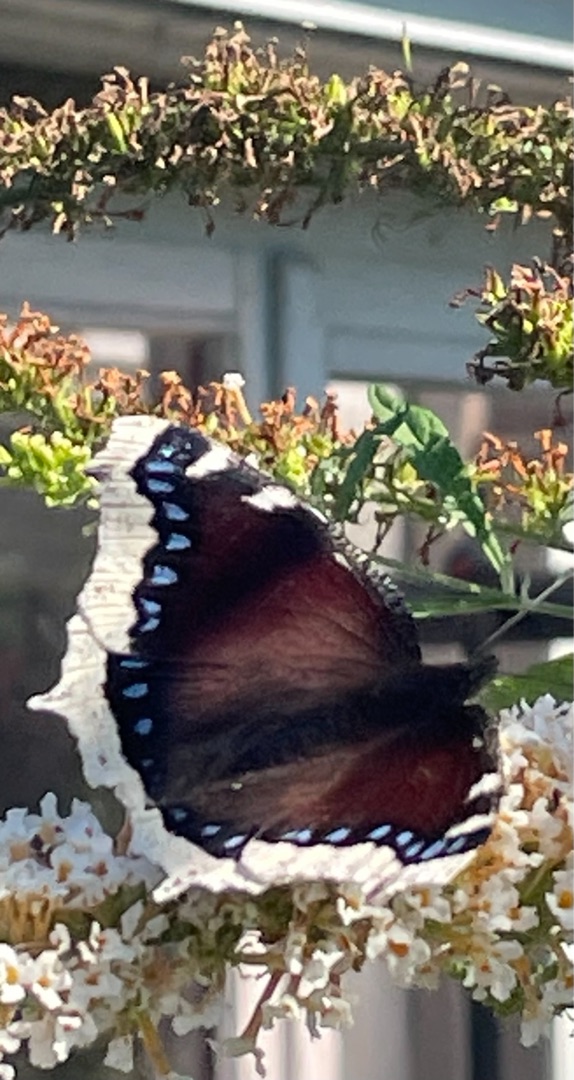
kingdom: Animalia
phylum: Arthropoda
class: Insecta
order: Lepidoptera
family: Nymphalidae
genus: Nymphalis
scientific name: Nymphalis antiopa
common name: Sørgekåbe
